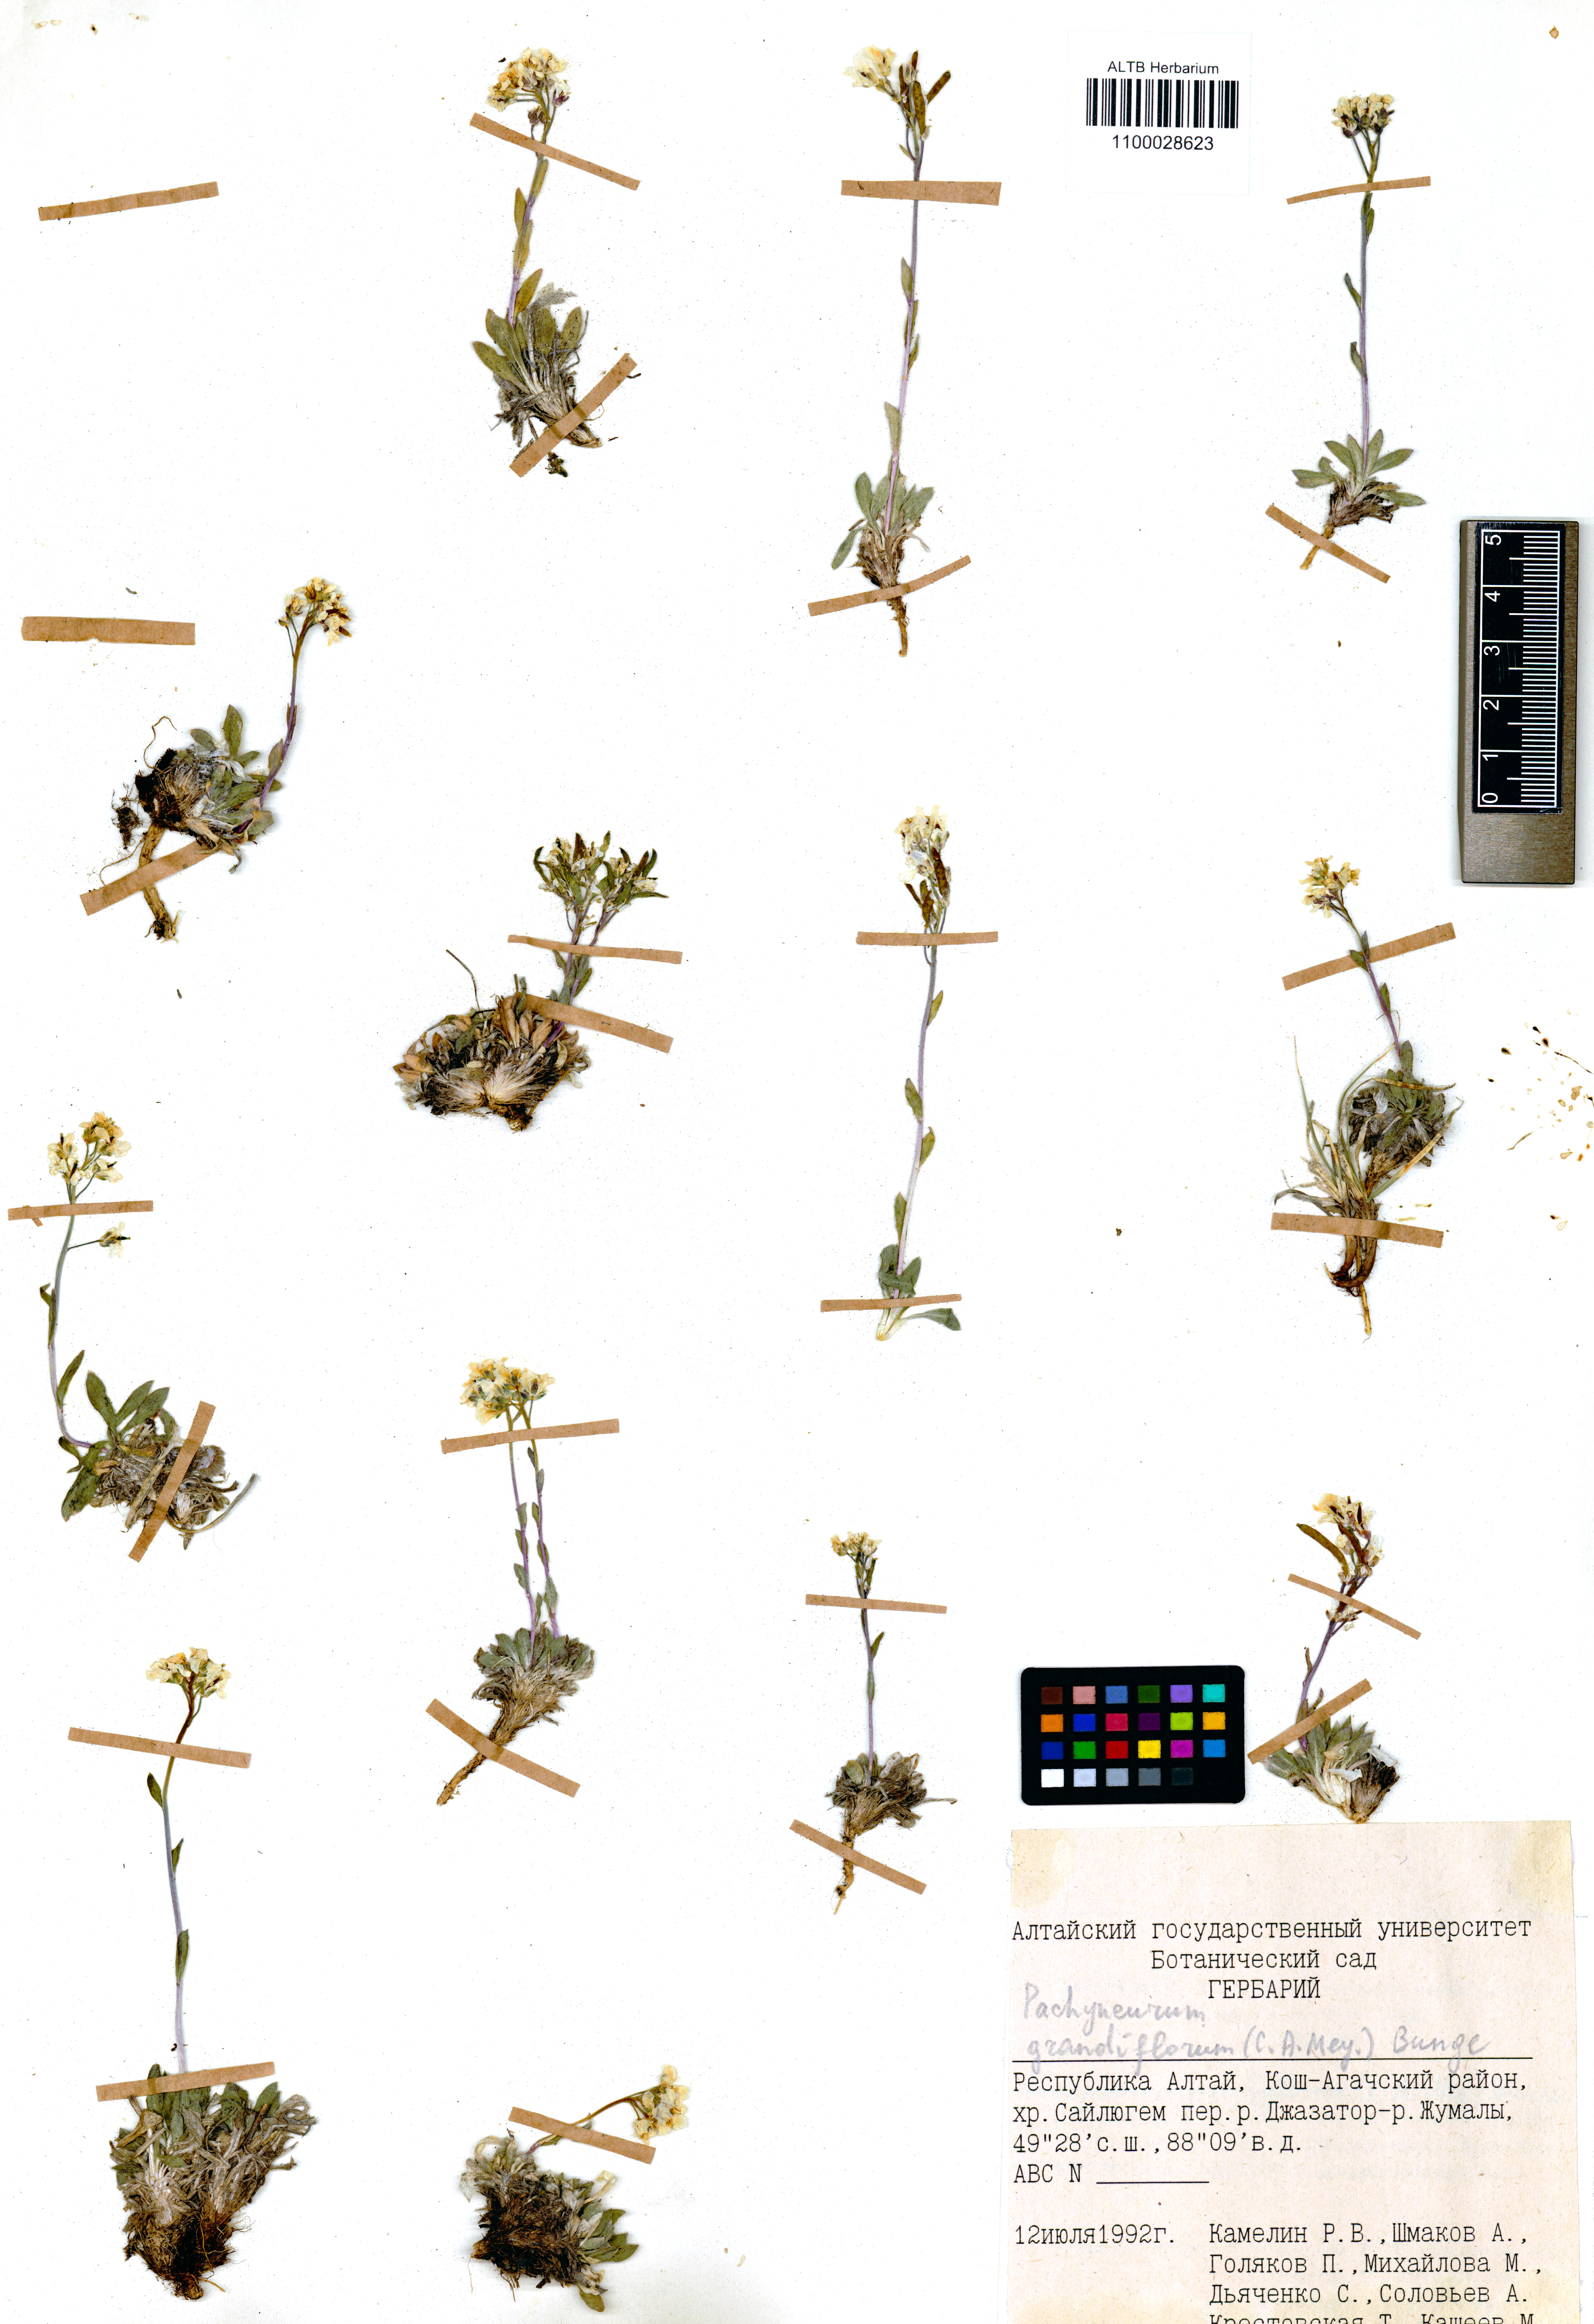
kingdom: Plantae
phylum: Tracheophyta
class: Magnoliopsida
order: Brassicales
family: Brassicaceae
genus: Pachyneurum
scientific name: Pachyneurum grandiflorum
